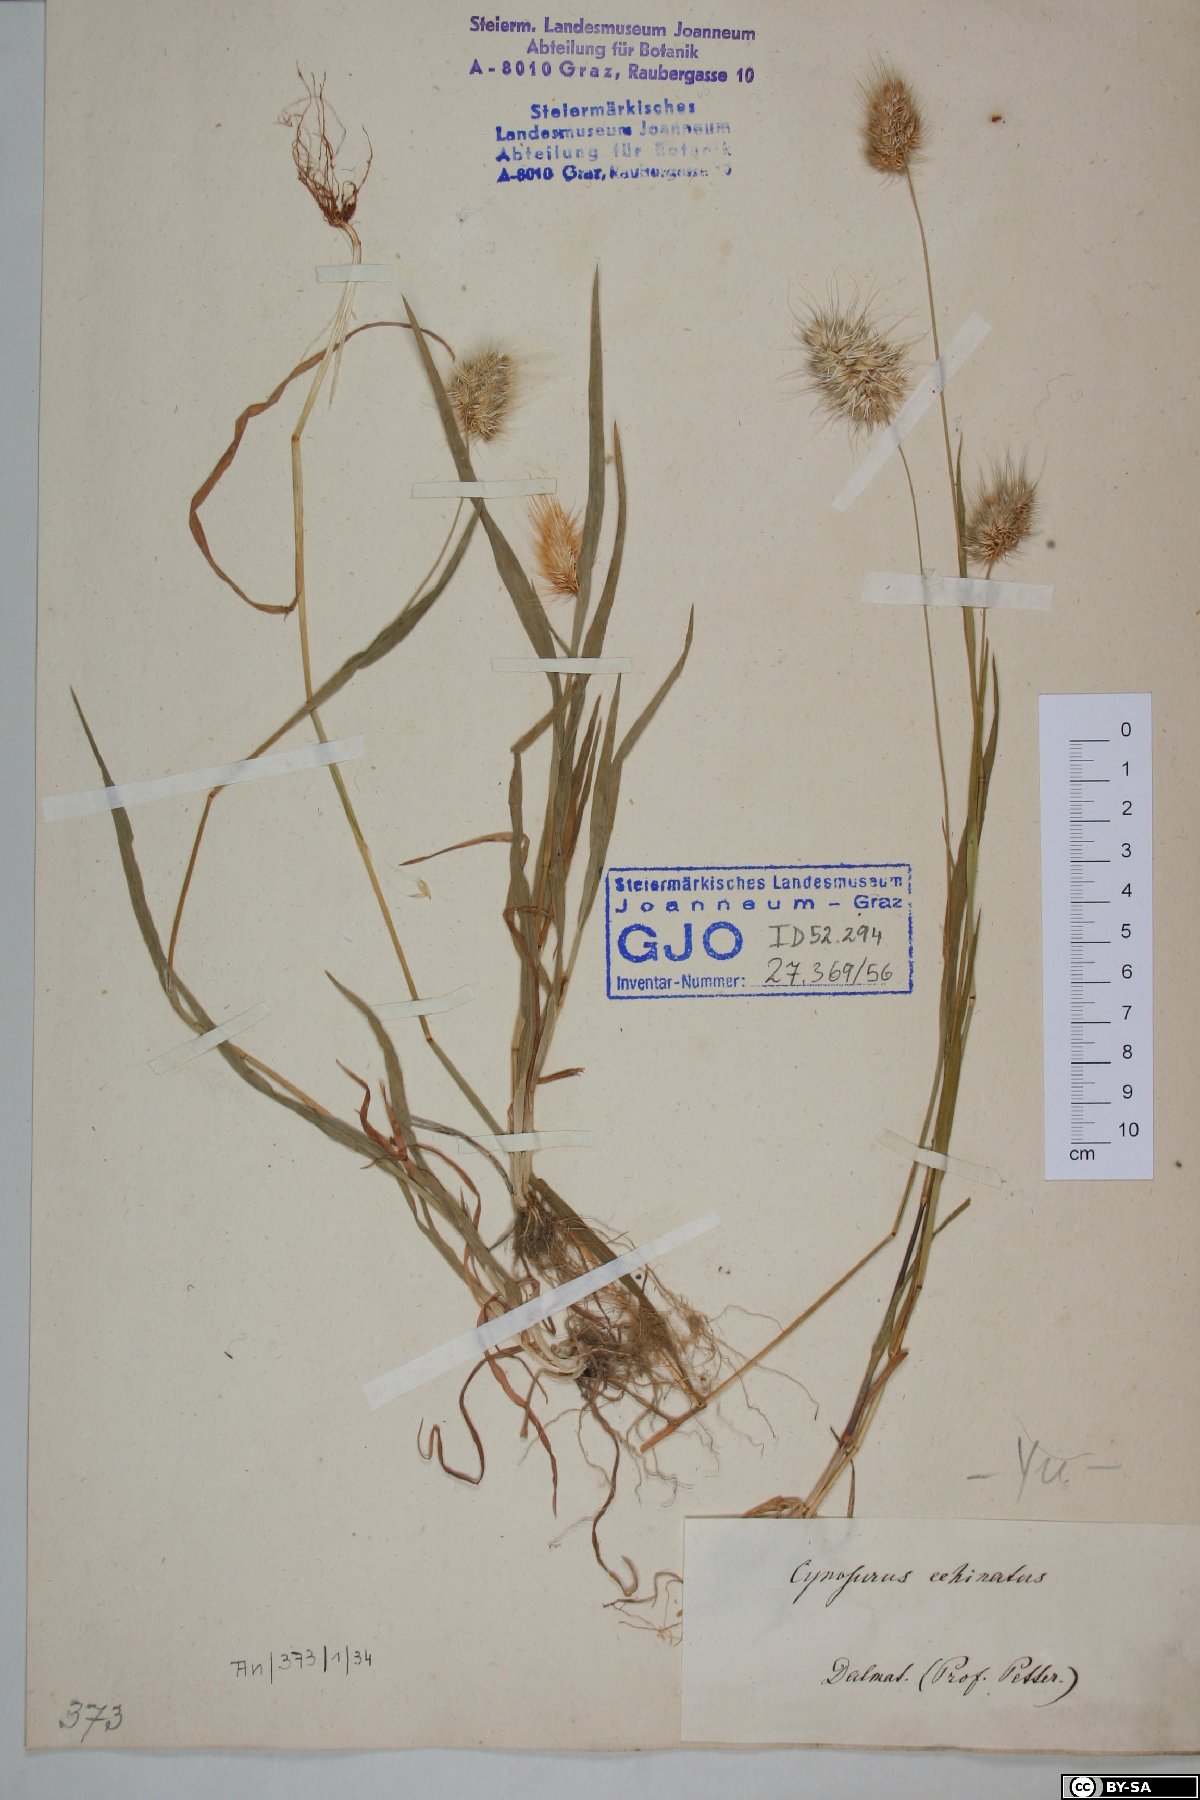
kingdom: Plantae
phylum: Tracheophyta
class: Liliopsida
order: Poales
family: Poaceae
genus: Cynosurus
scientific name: Cynosurus echinatus
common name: Rough dog's-tail
